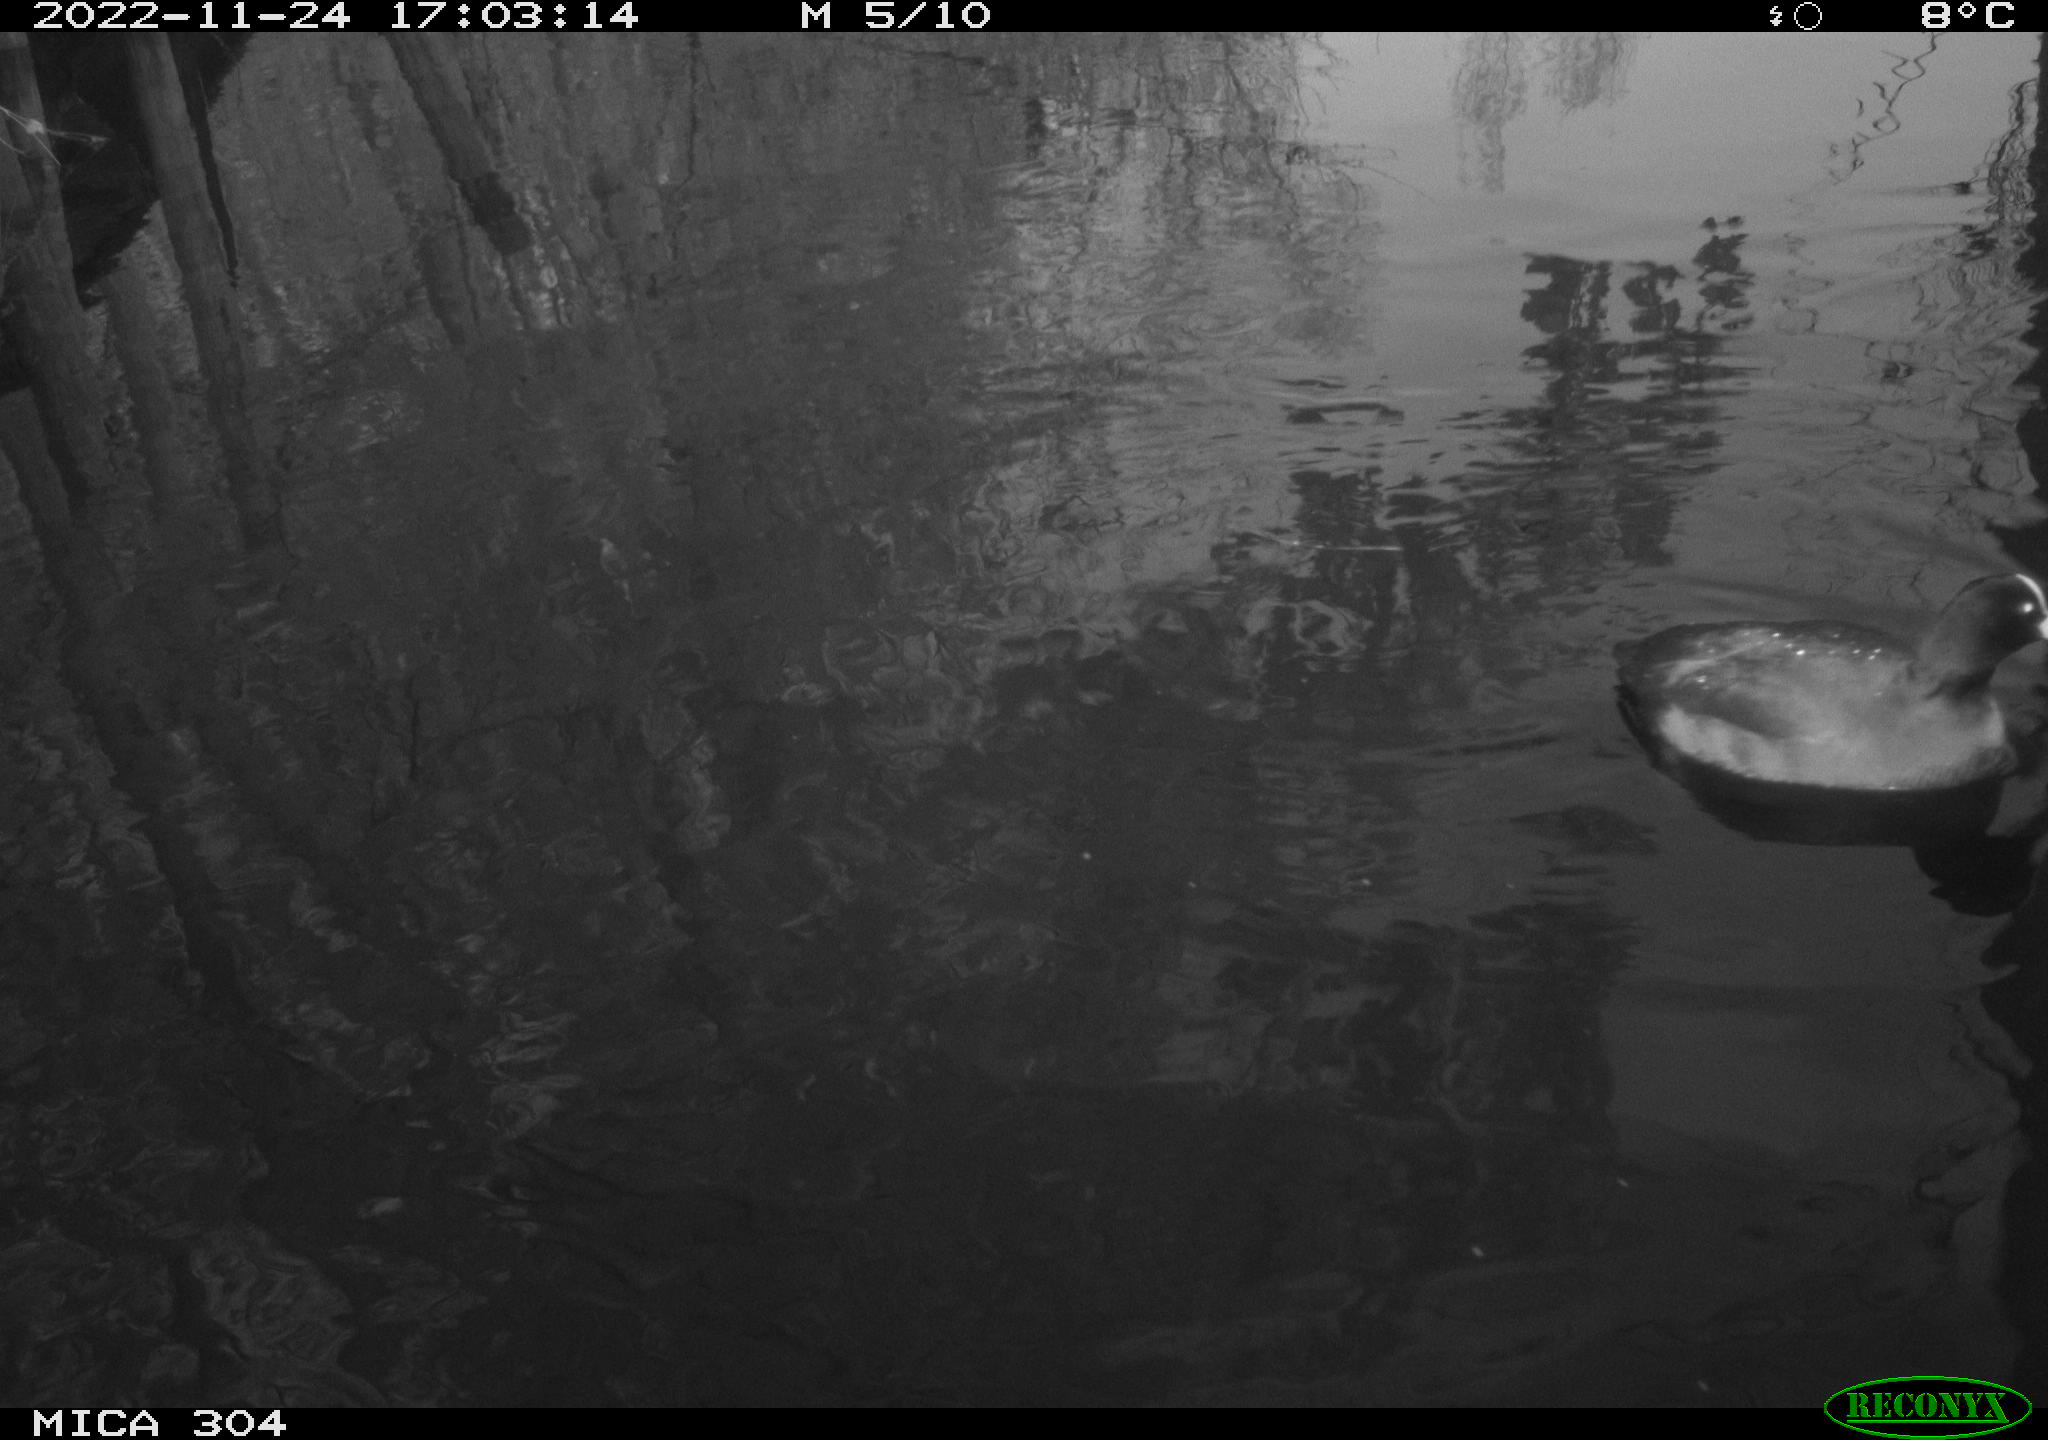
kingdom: Animalia
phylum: Chordata
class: Aves
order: Anseriformes
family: Anatidae
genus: Anas
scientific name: Anas
